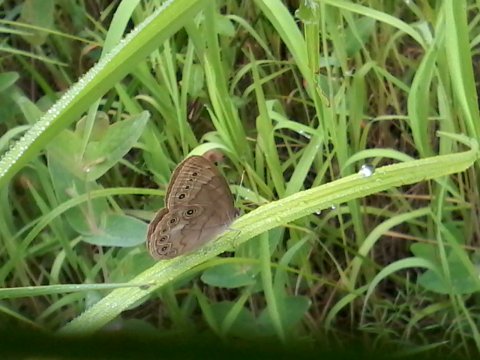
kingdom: Animalia
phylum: Arthropoda
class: Insecta
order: Lepidoptera
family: Nymphalidae
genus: Lethe
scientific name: Lethe eurydice
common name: Eyed Brown
